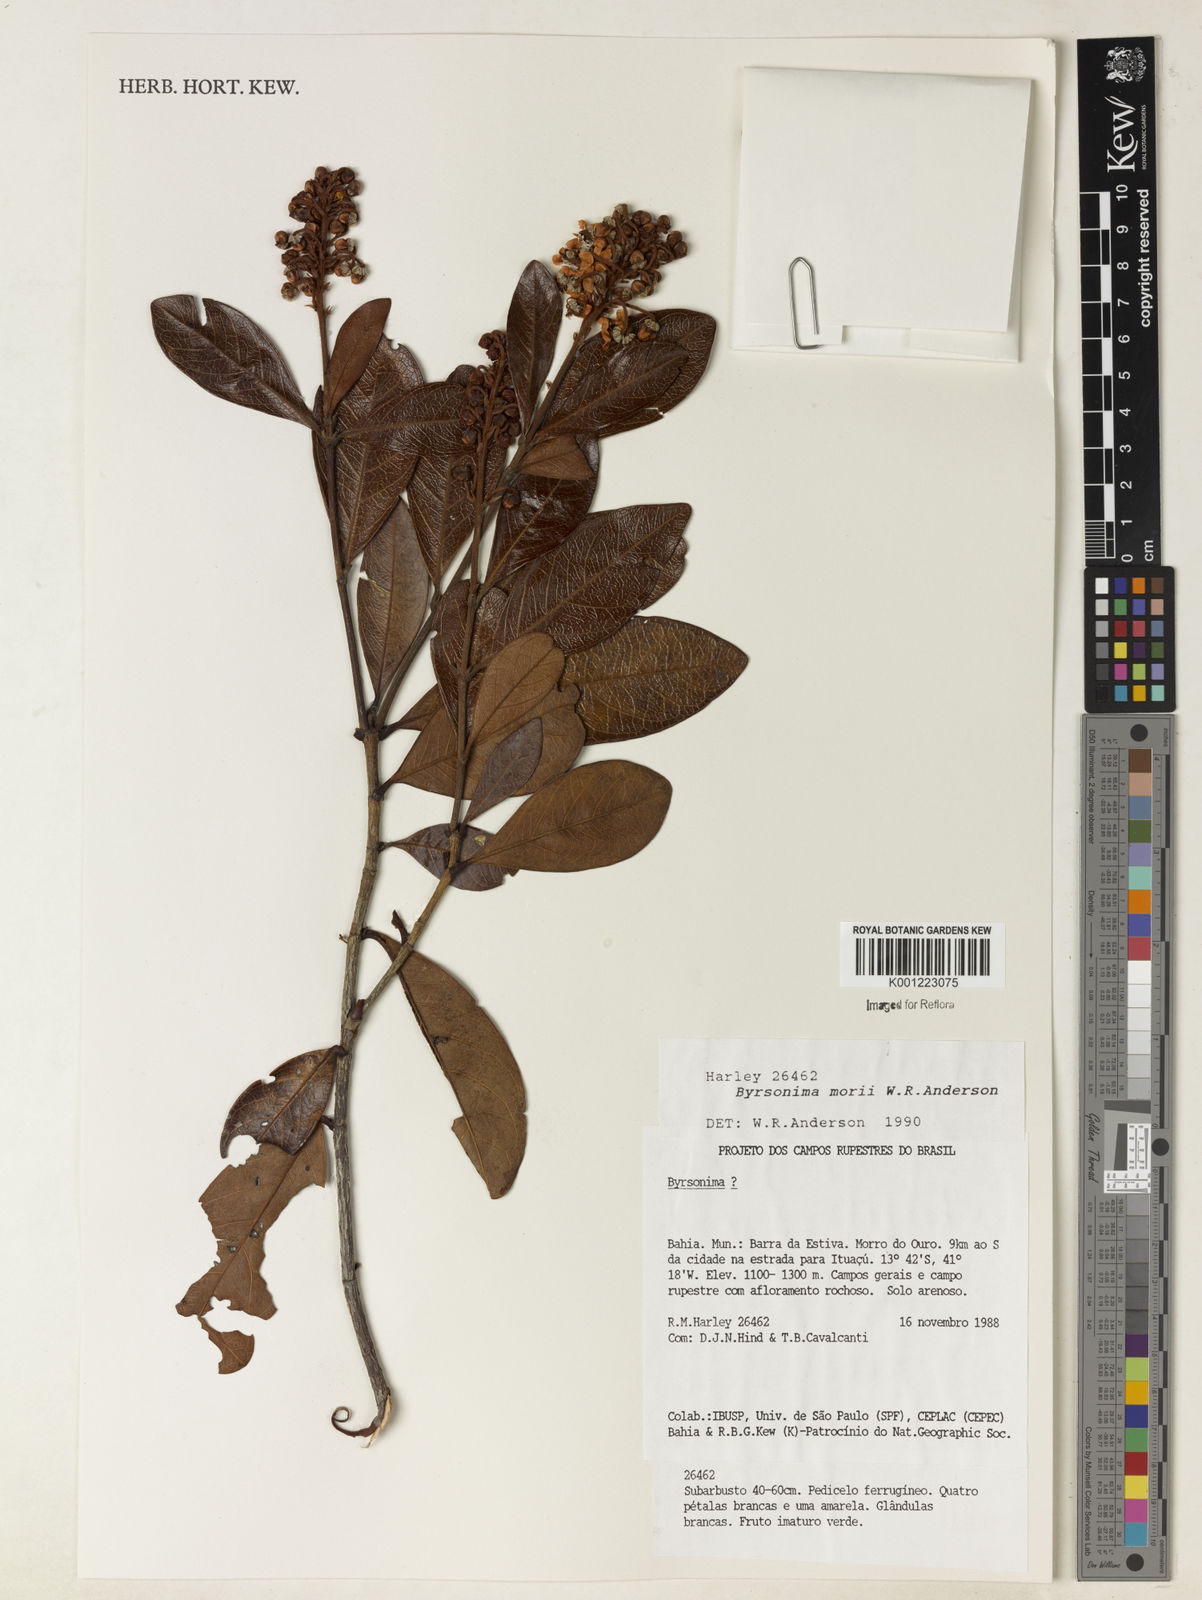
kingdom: Plantae
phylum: Tracheophyta
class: Magnoliopsida
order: Malpighiales
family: Malpighiaceae
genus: Byrsonima
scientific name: Byrsonima morii
